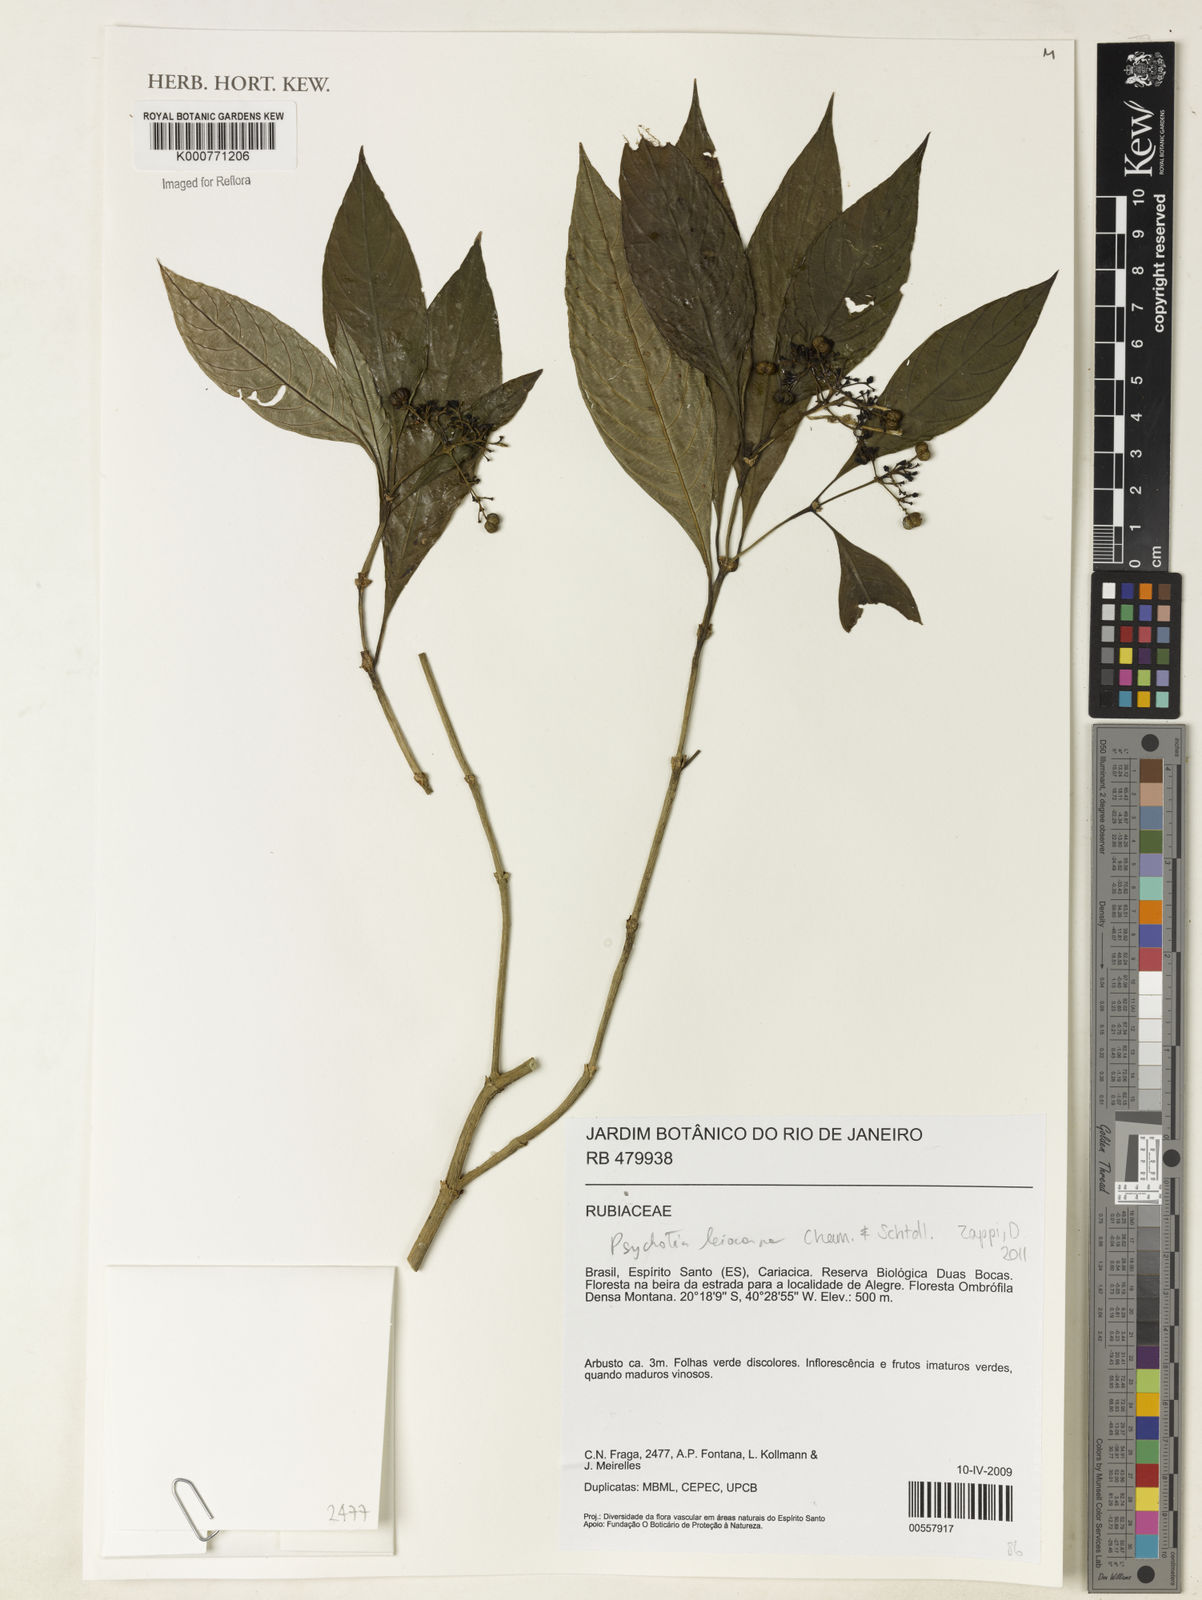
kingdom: Plantae
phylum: Tracheophyta
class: Magnoliopsida
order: Gentianales
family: Rubiaceae
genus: Psychotria
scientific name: Psychotria leiocarpa
